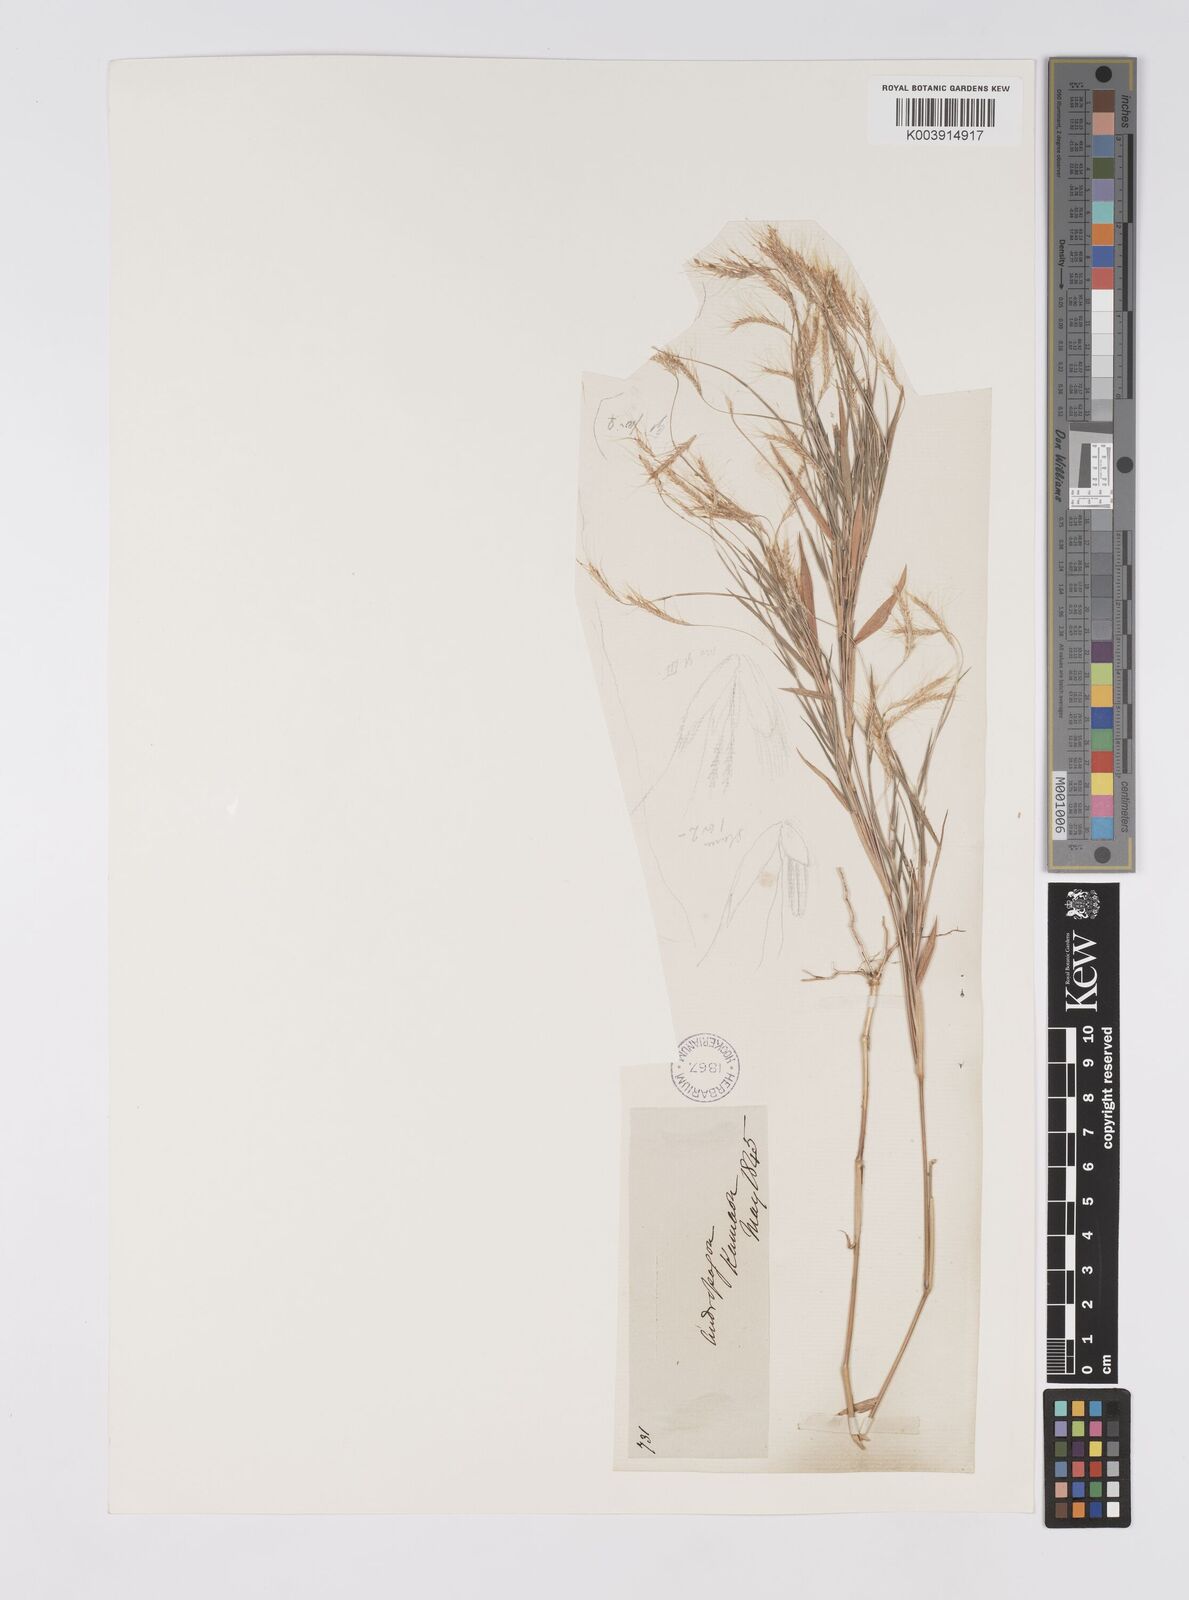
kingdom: Plantae
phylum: Tracheophyta
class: Liliopsida
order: Poales
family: Poaceae
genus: Pogonatherum
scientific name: Pogonatherum paniceum
